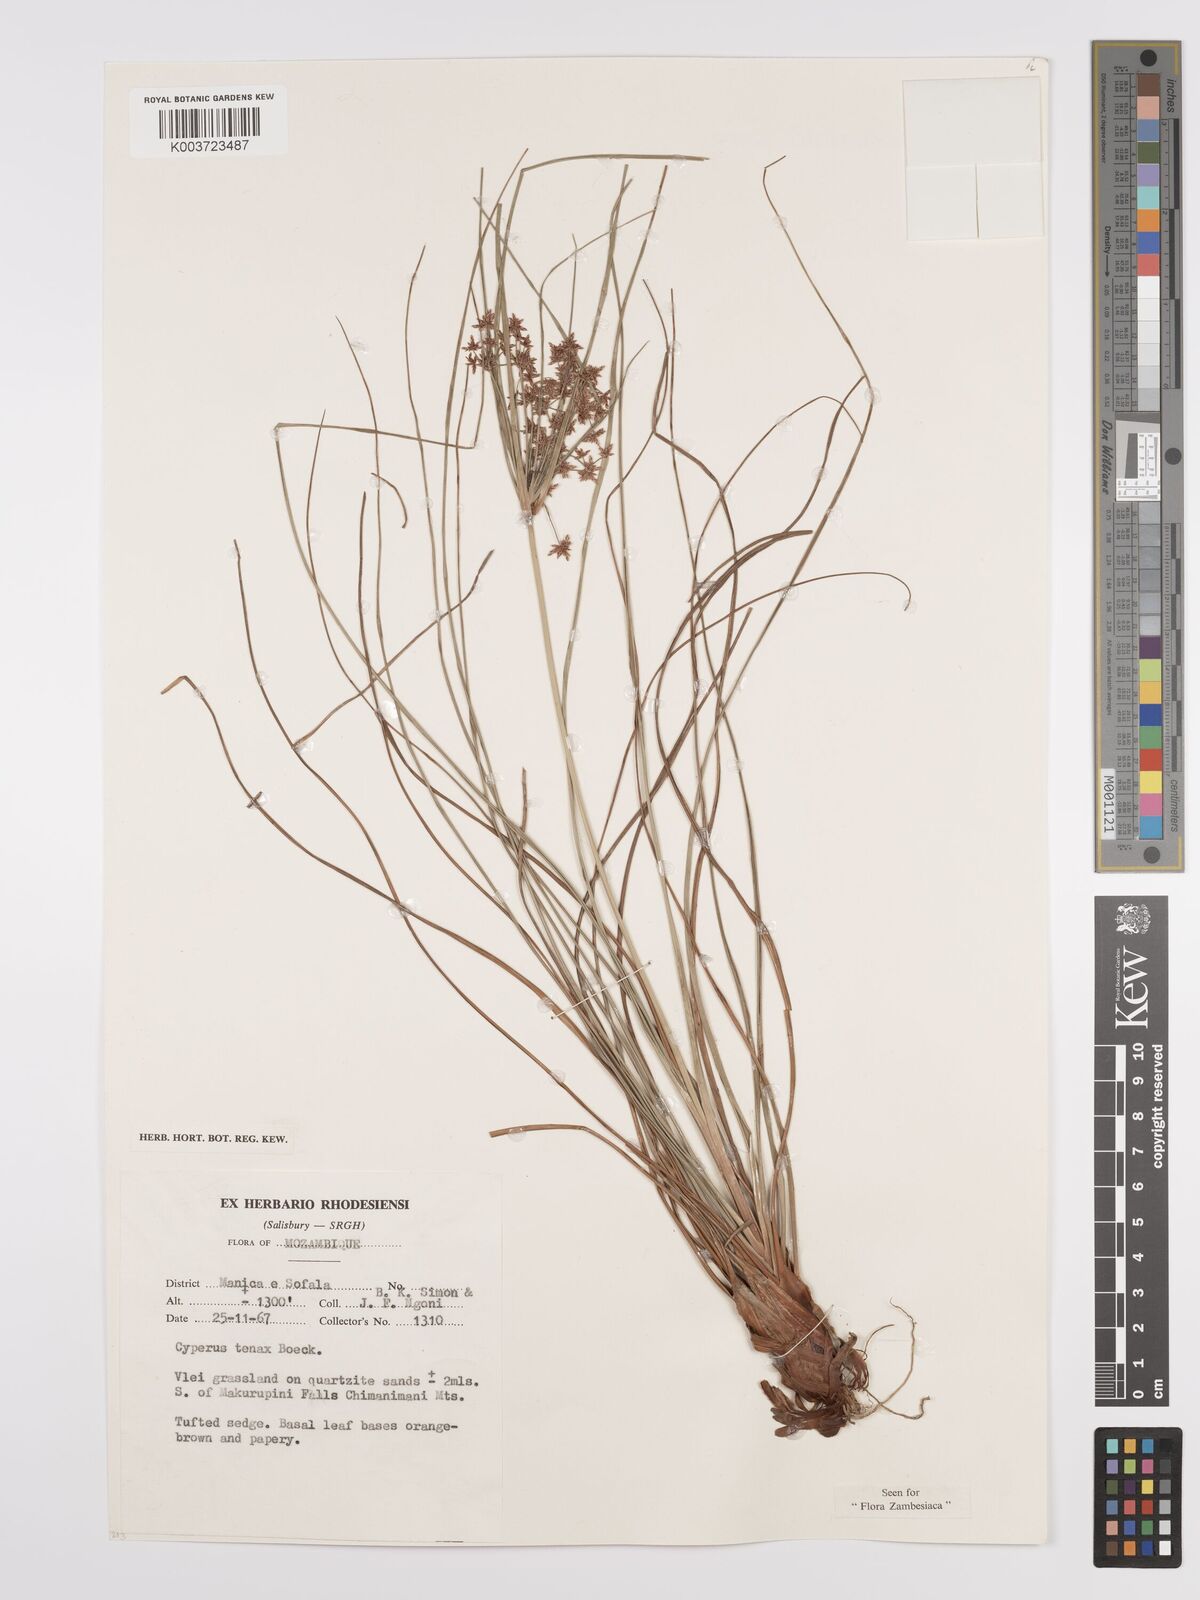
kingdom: Plantae
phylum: Tracheophyta
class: Liliopsida
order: Poales
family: Cyperaceae
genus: Cyperus
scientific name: Cyperus tenax
